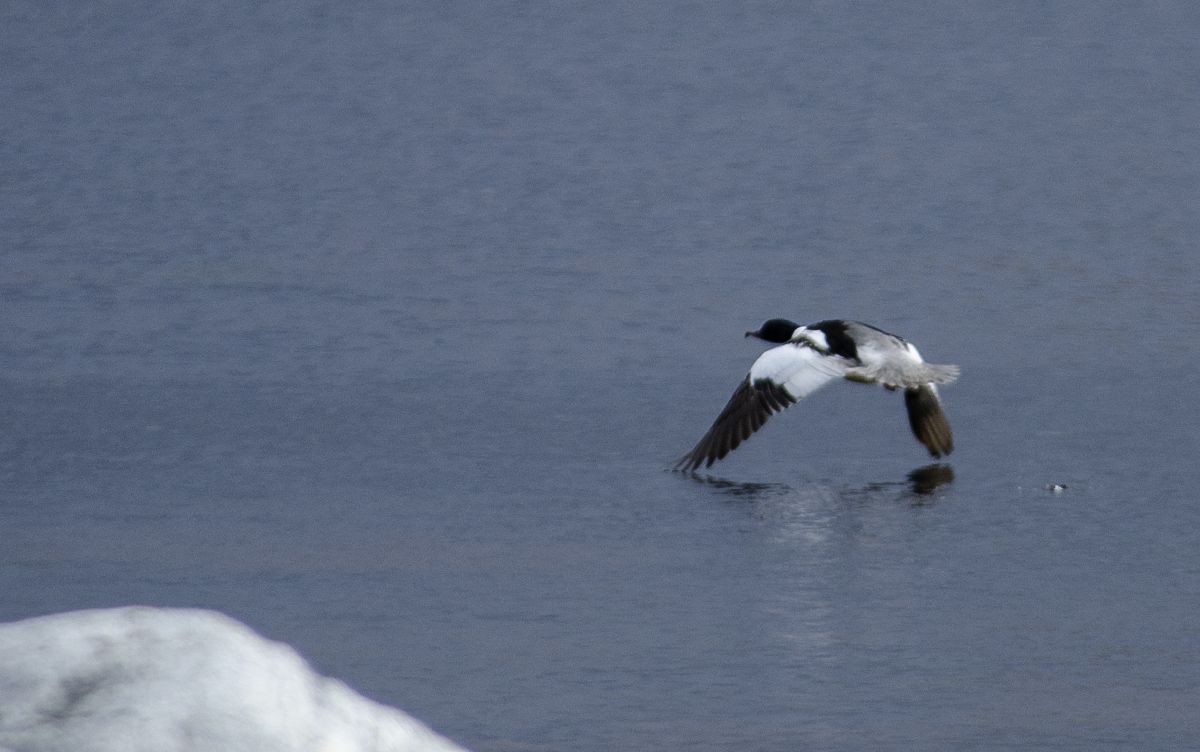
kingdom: Animalia
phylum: Chordata
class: Aves
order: Anseriformes
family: Anatidae
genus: Mergus
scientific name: Mergus merganser
